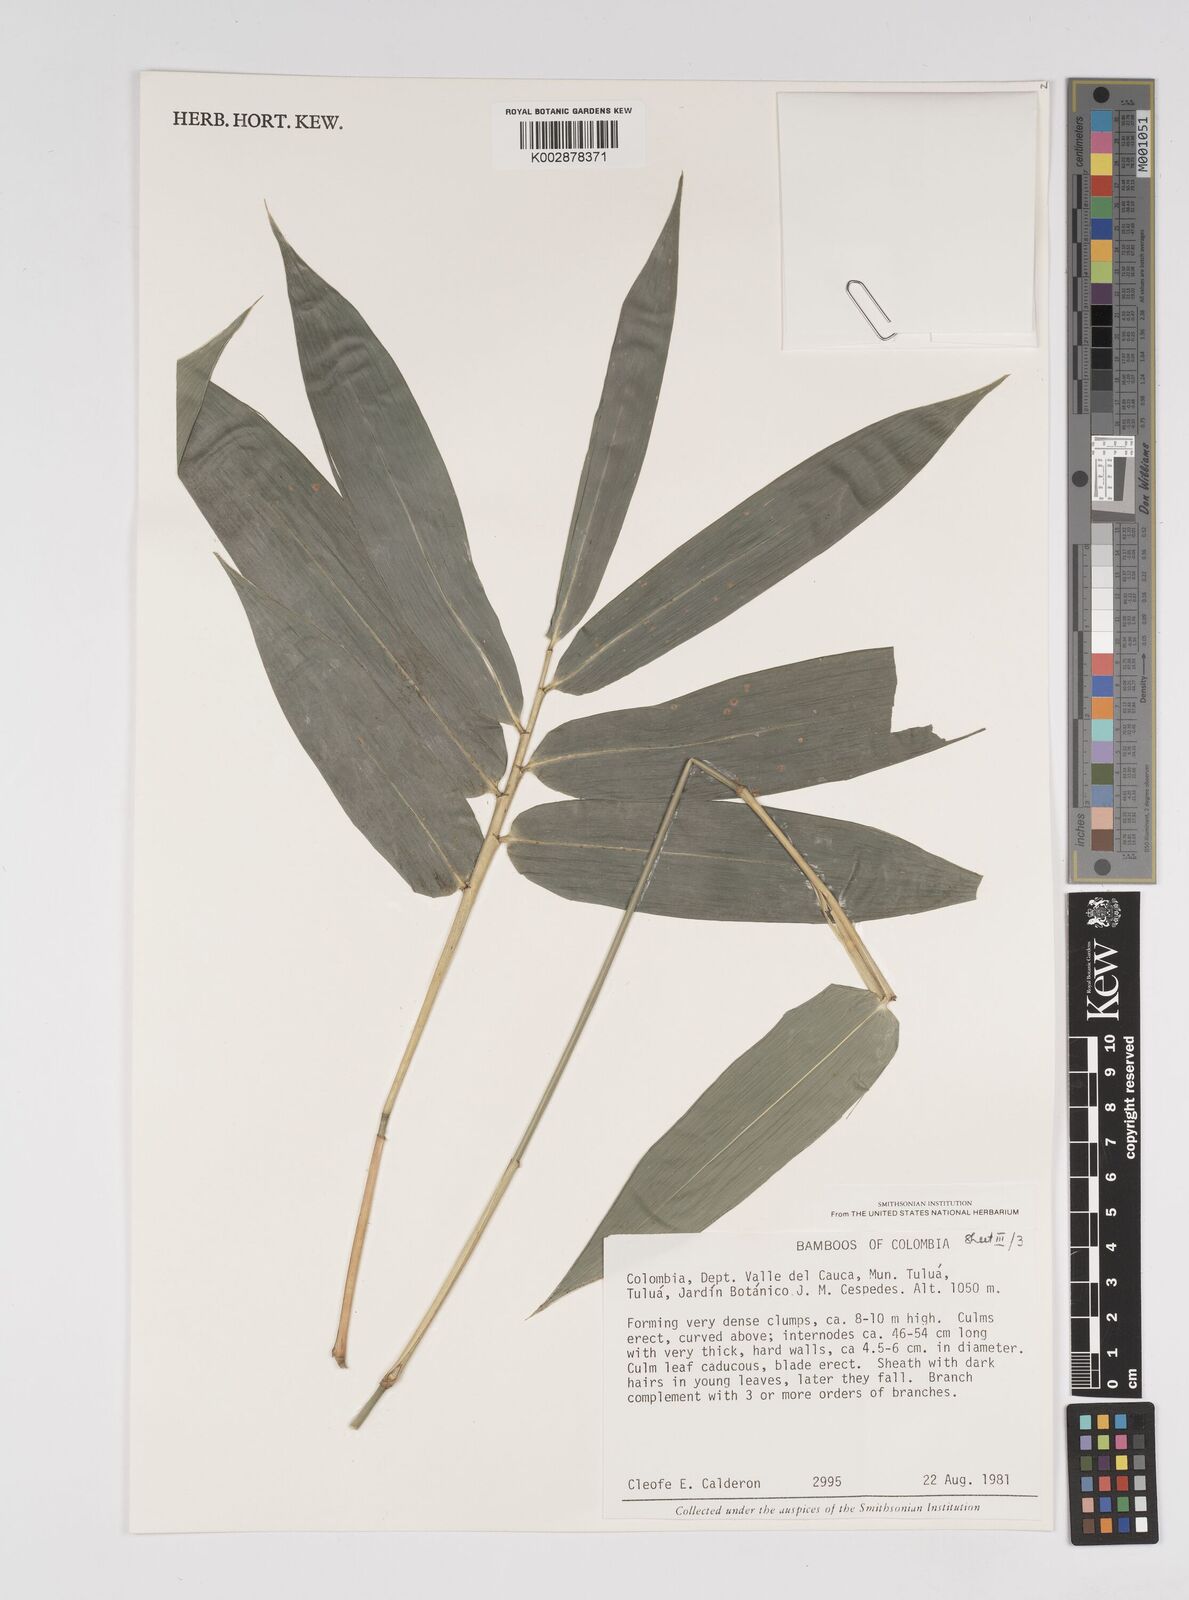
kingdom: Plantae
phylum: Tracheophyta
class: Liliopsida
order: Poales
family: Poaceae
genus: Bambusa
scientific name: Bambusa
